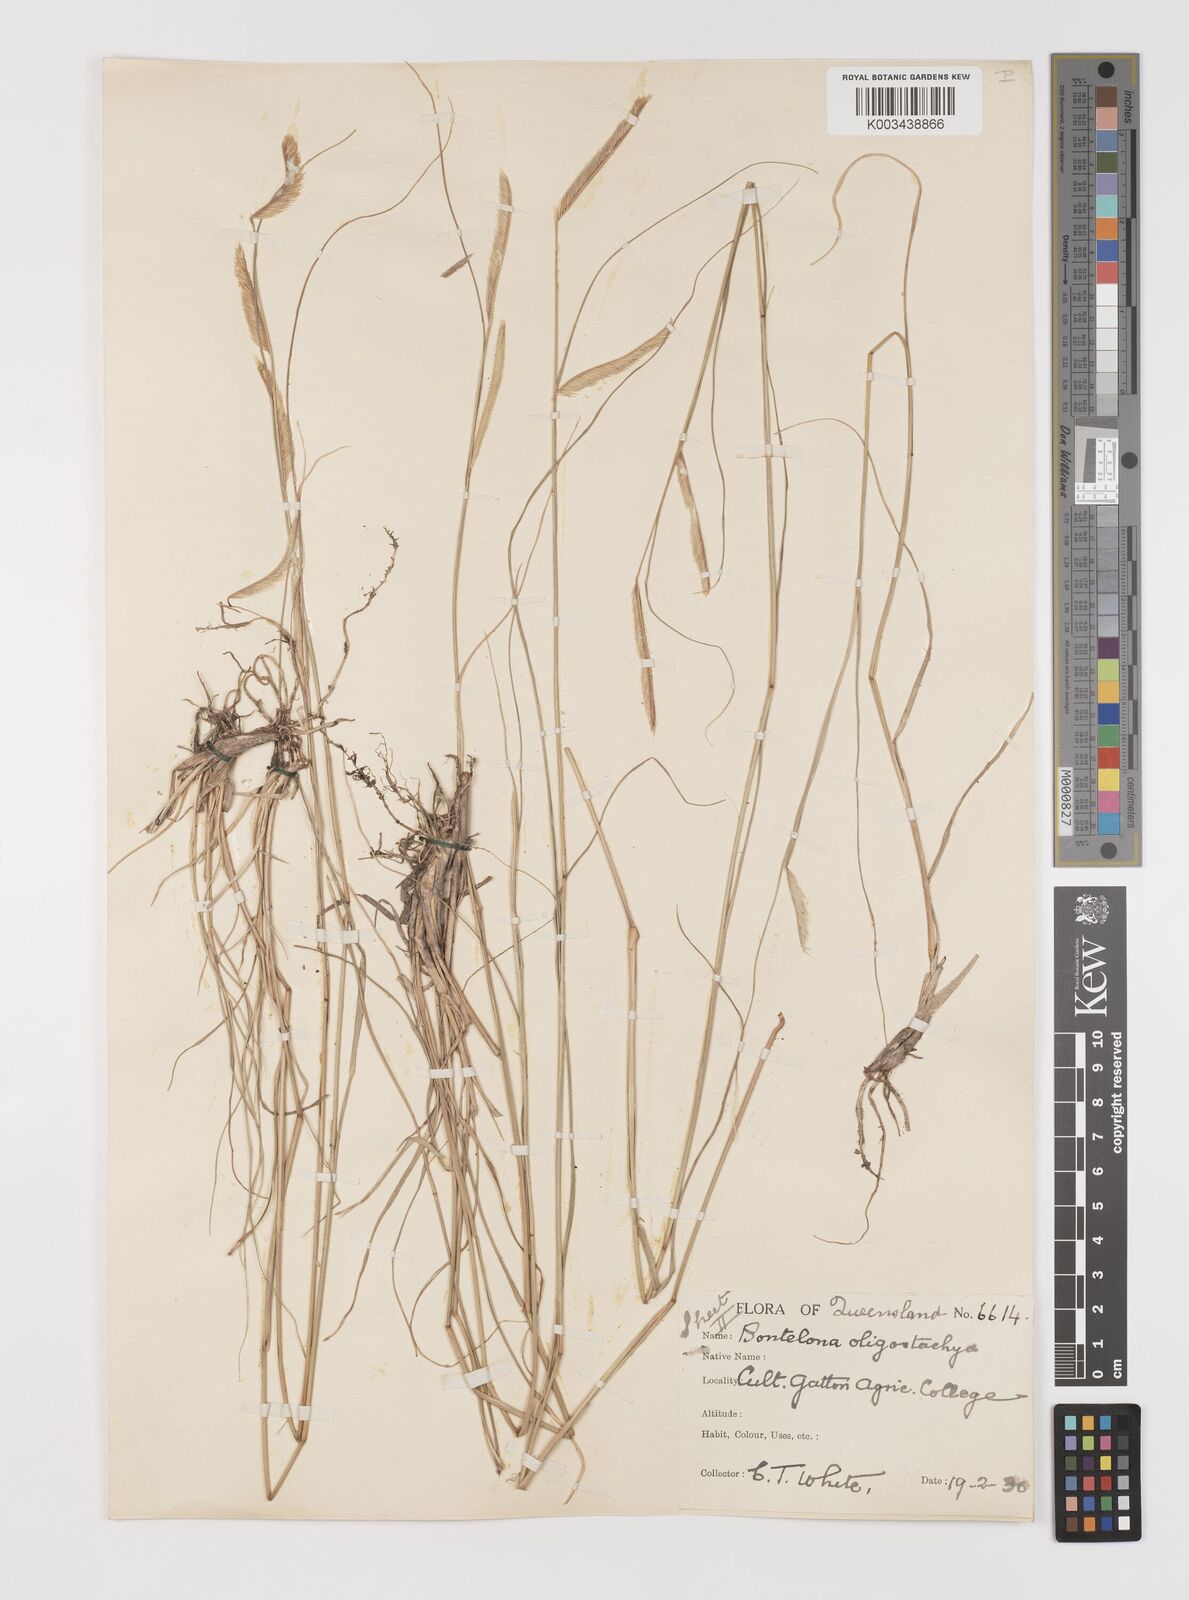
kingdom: Plantae
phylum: Tracheophyta
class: Liliopsida
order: Poales
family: Poaceae
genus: Bouteloua
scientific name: Bouteloua aristidoides
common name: Needle grama
